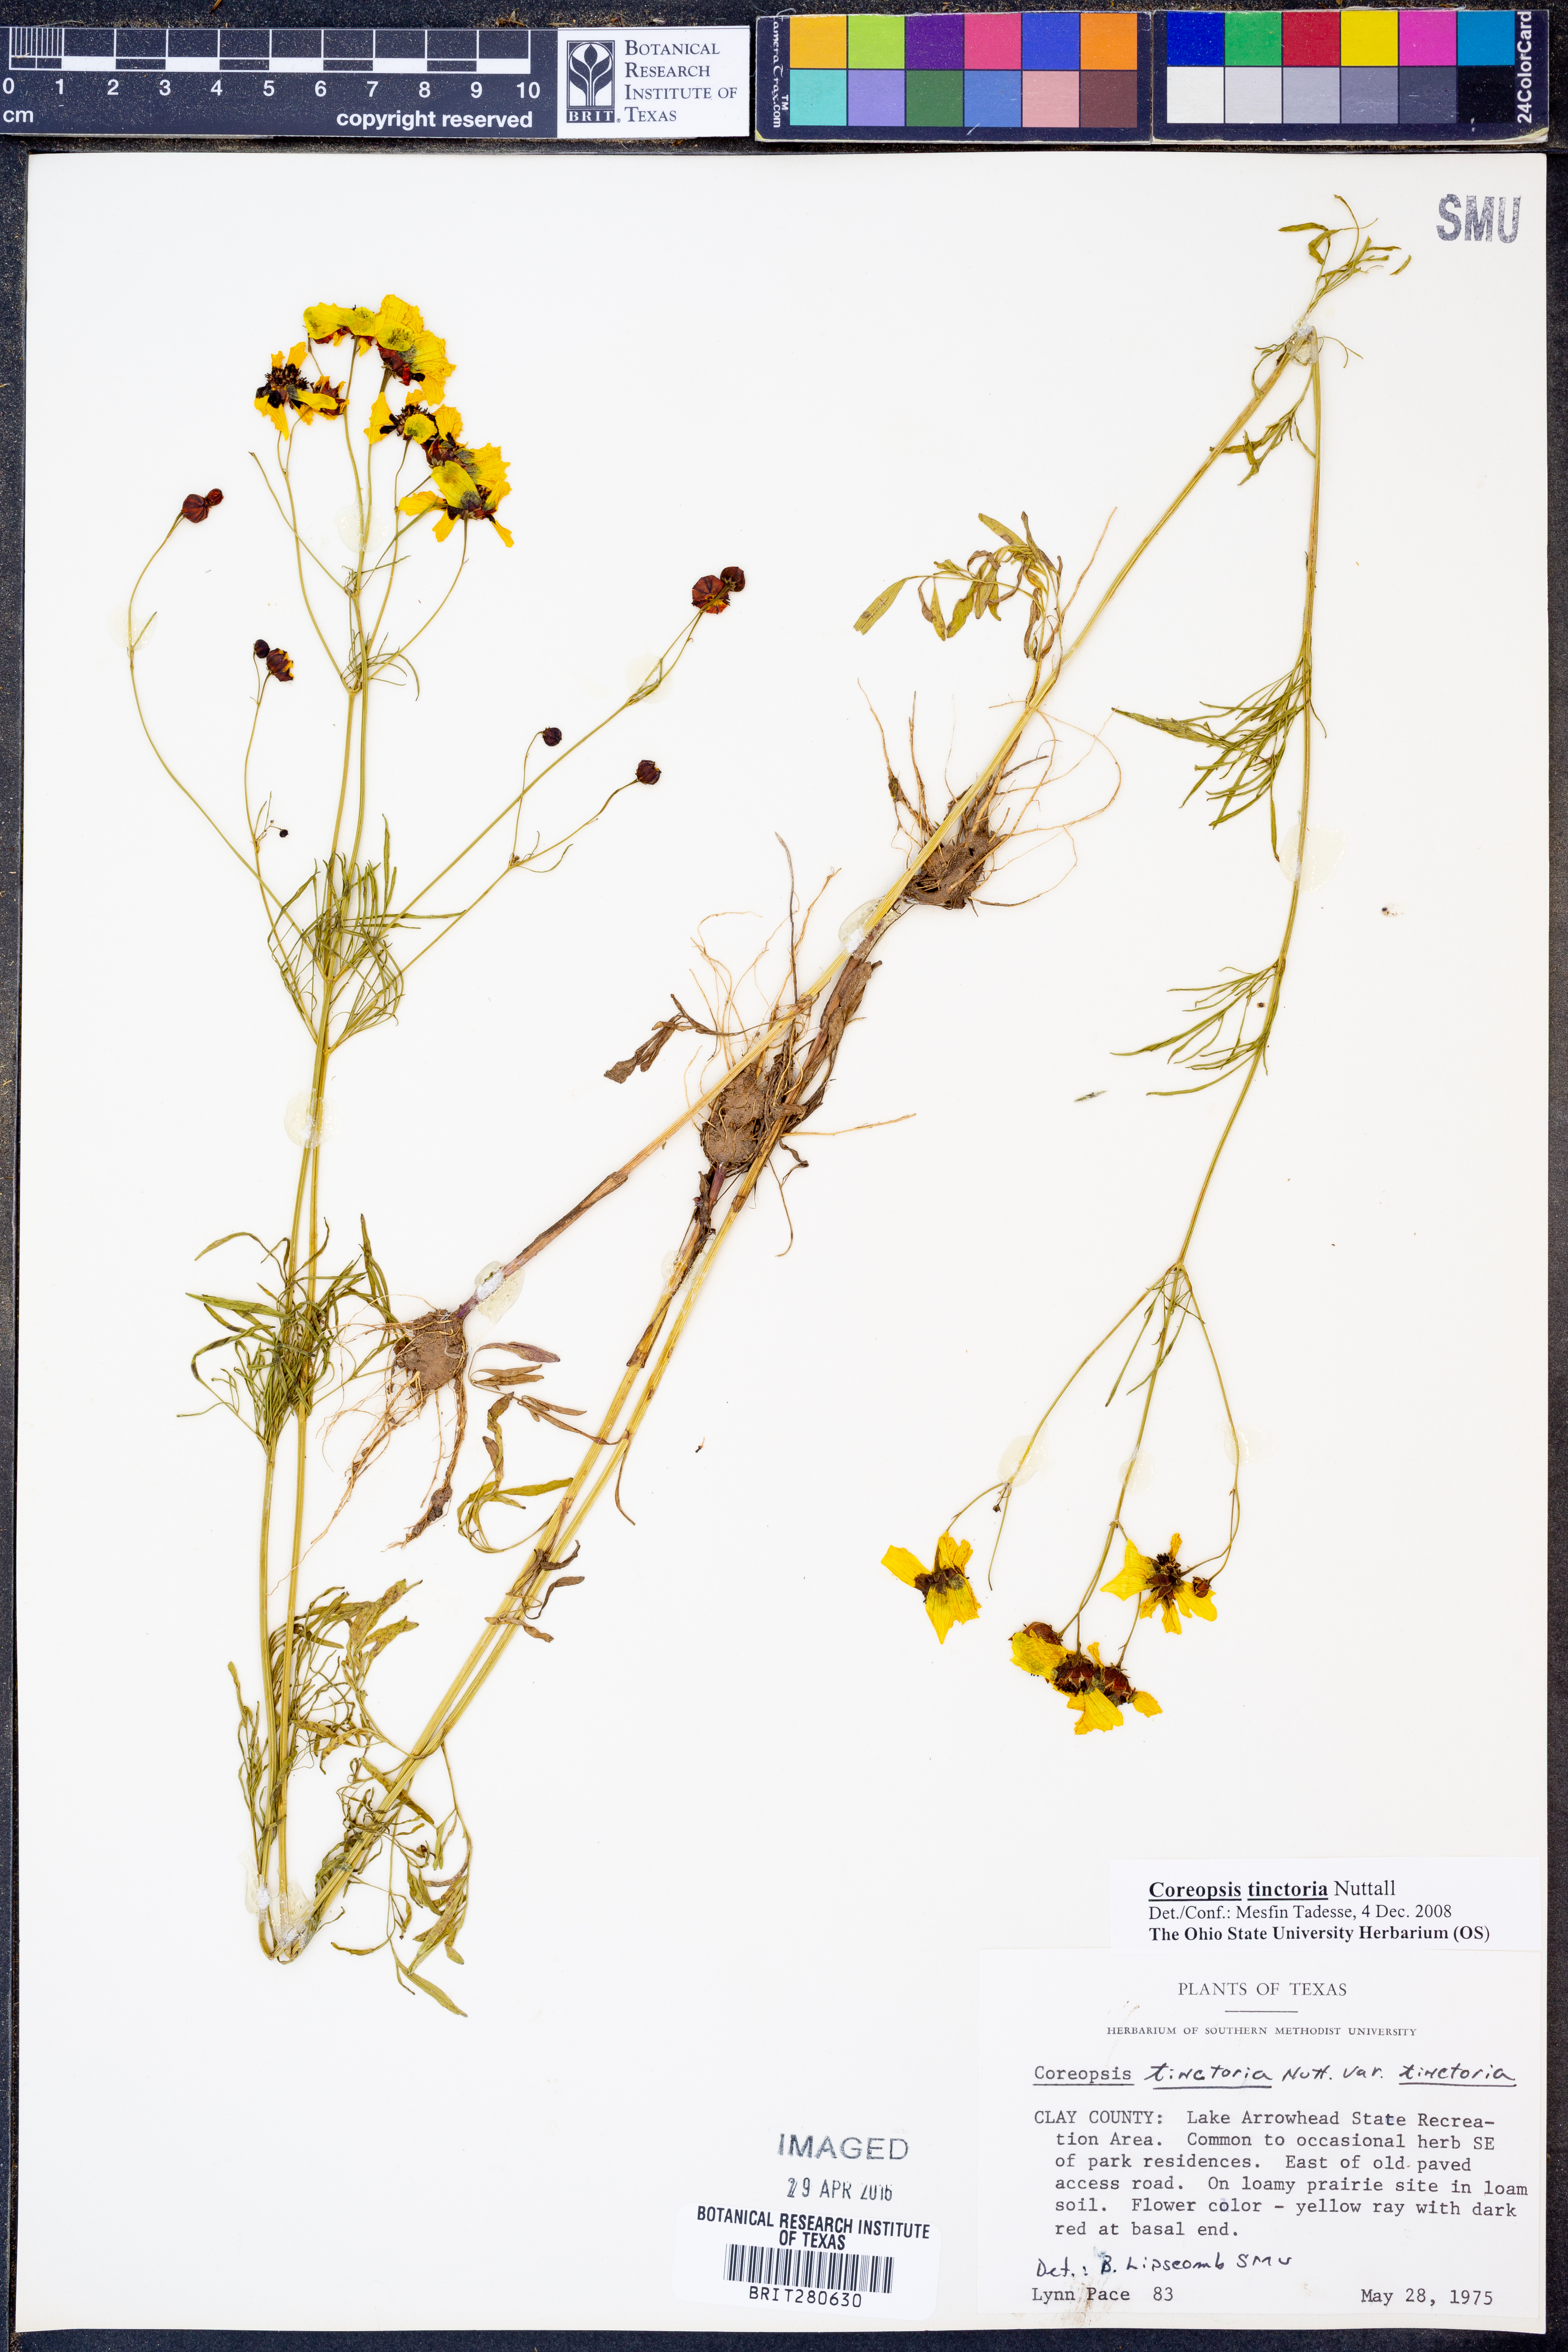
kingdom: Plantae
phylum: Tracheophyta
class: Magnoliopsida
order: Asterales
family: Asteraceae
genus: Coreopsis
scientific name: Coreopsis tinctoria
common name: Garden tickseed
